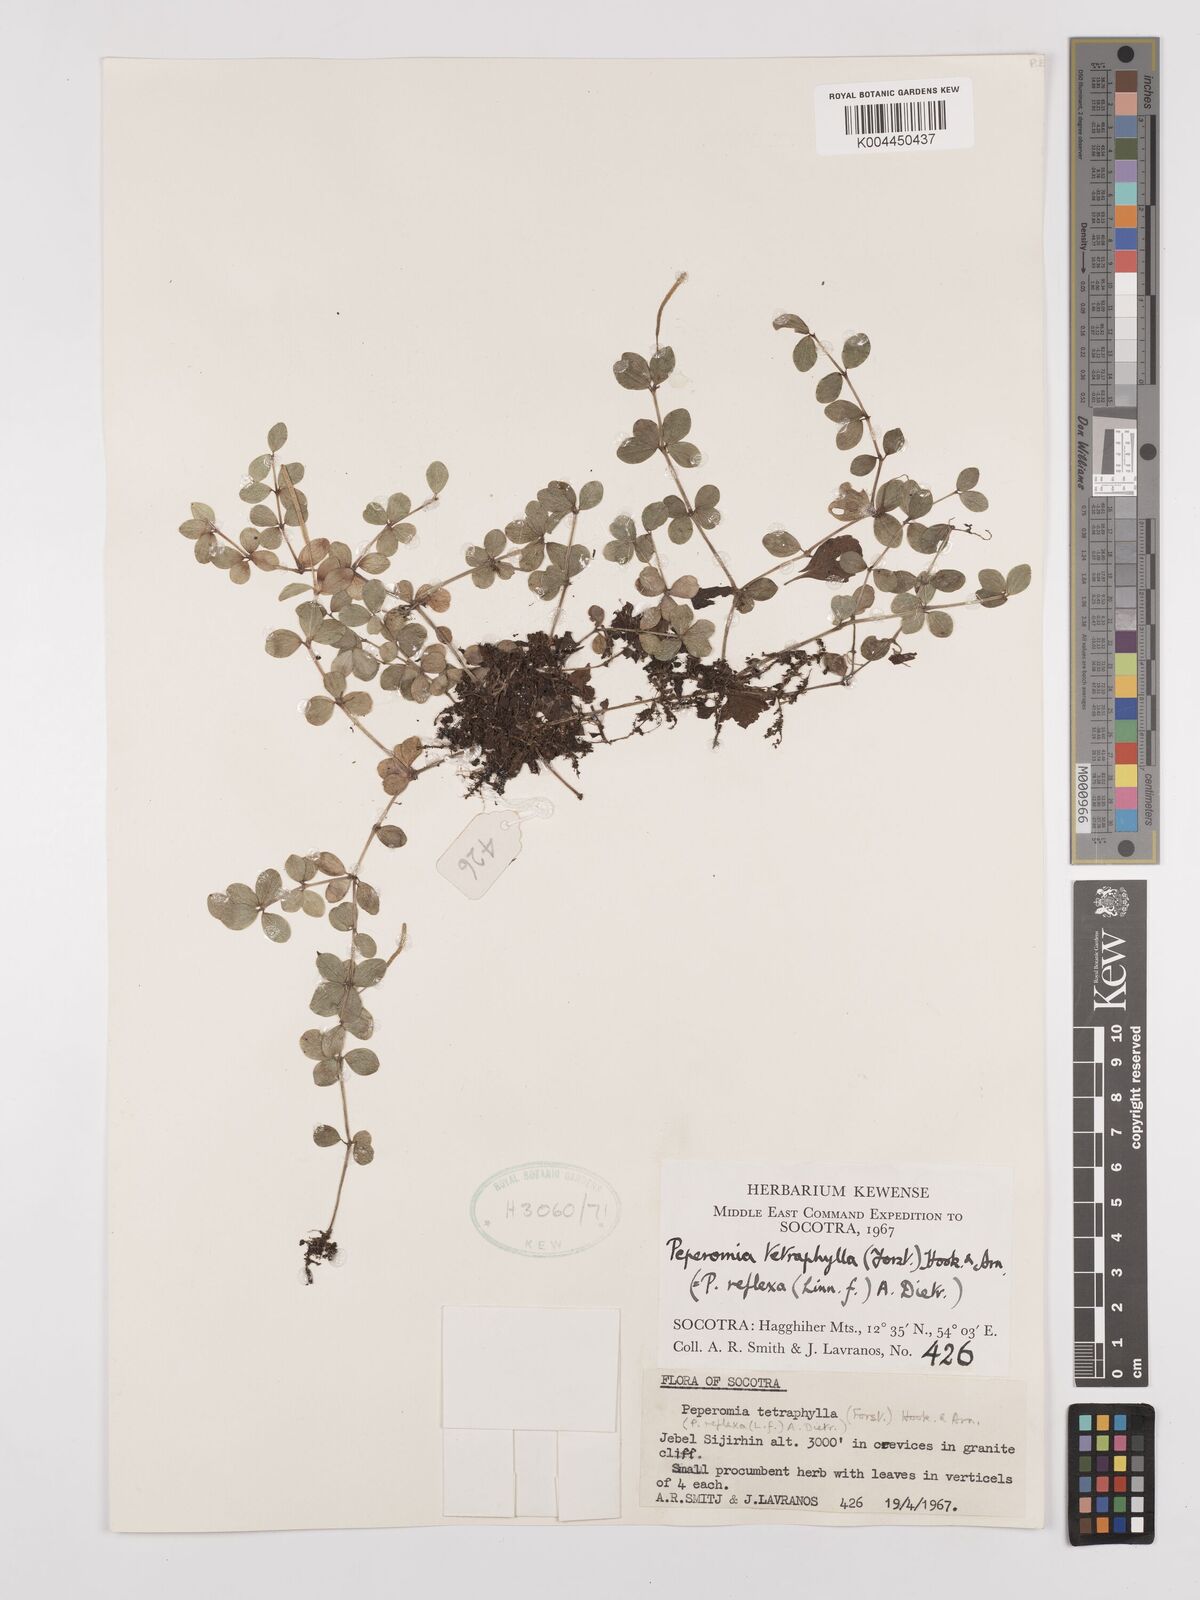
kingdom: Plantae
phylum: Tracheophyta
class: Magnoliopsida
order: Piperales
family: Piperaceae
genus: Peperomia
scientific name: Peperomia tetraphylla
